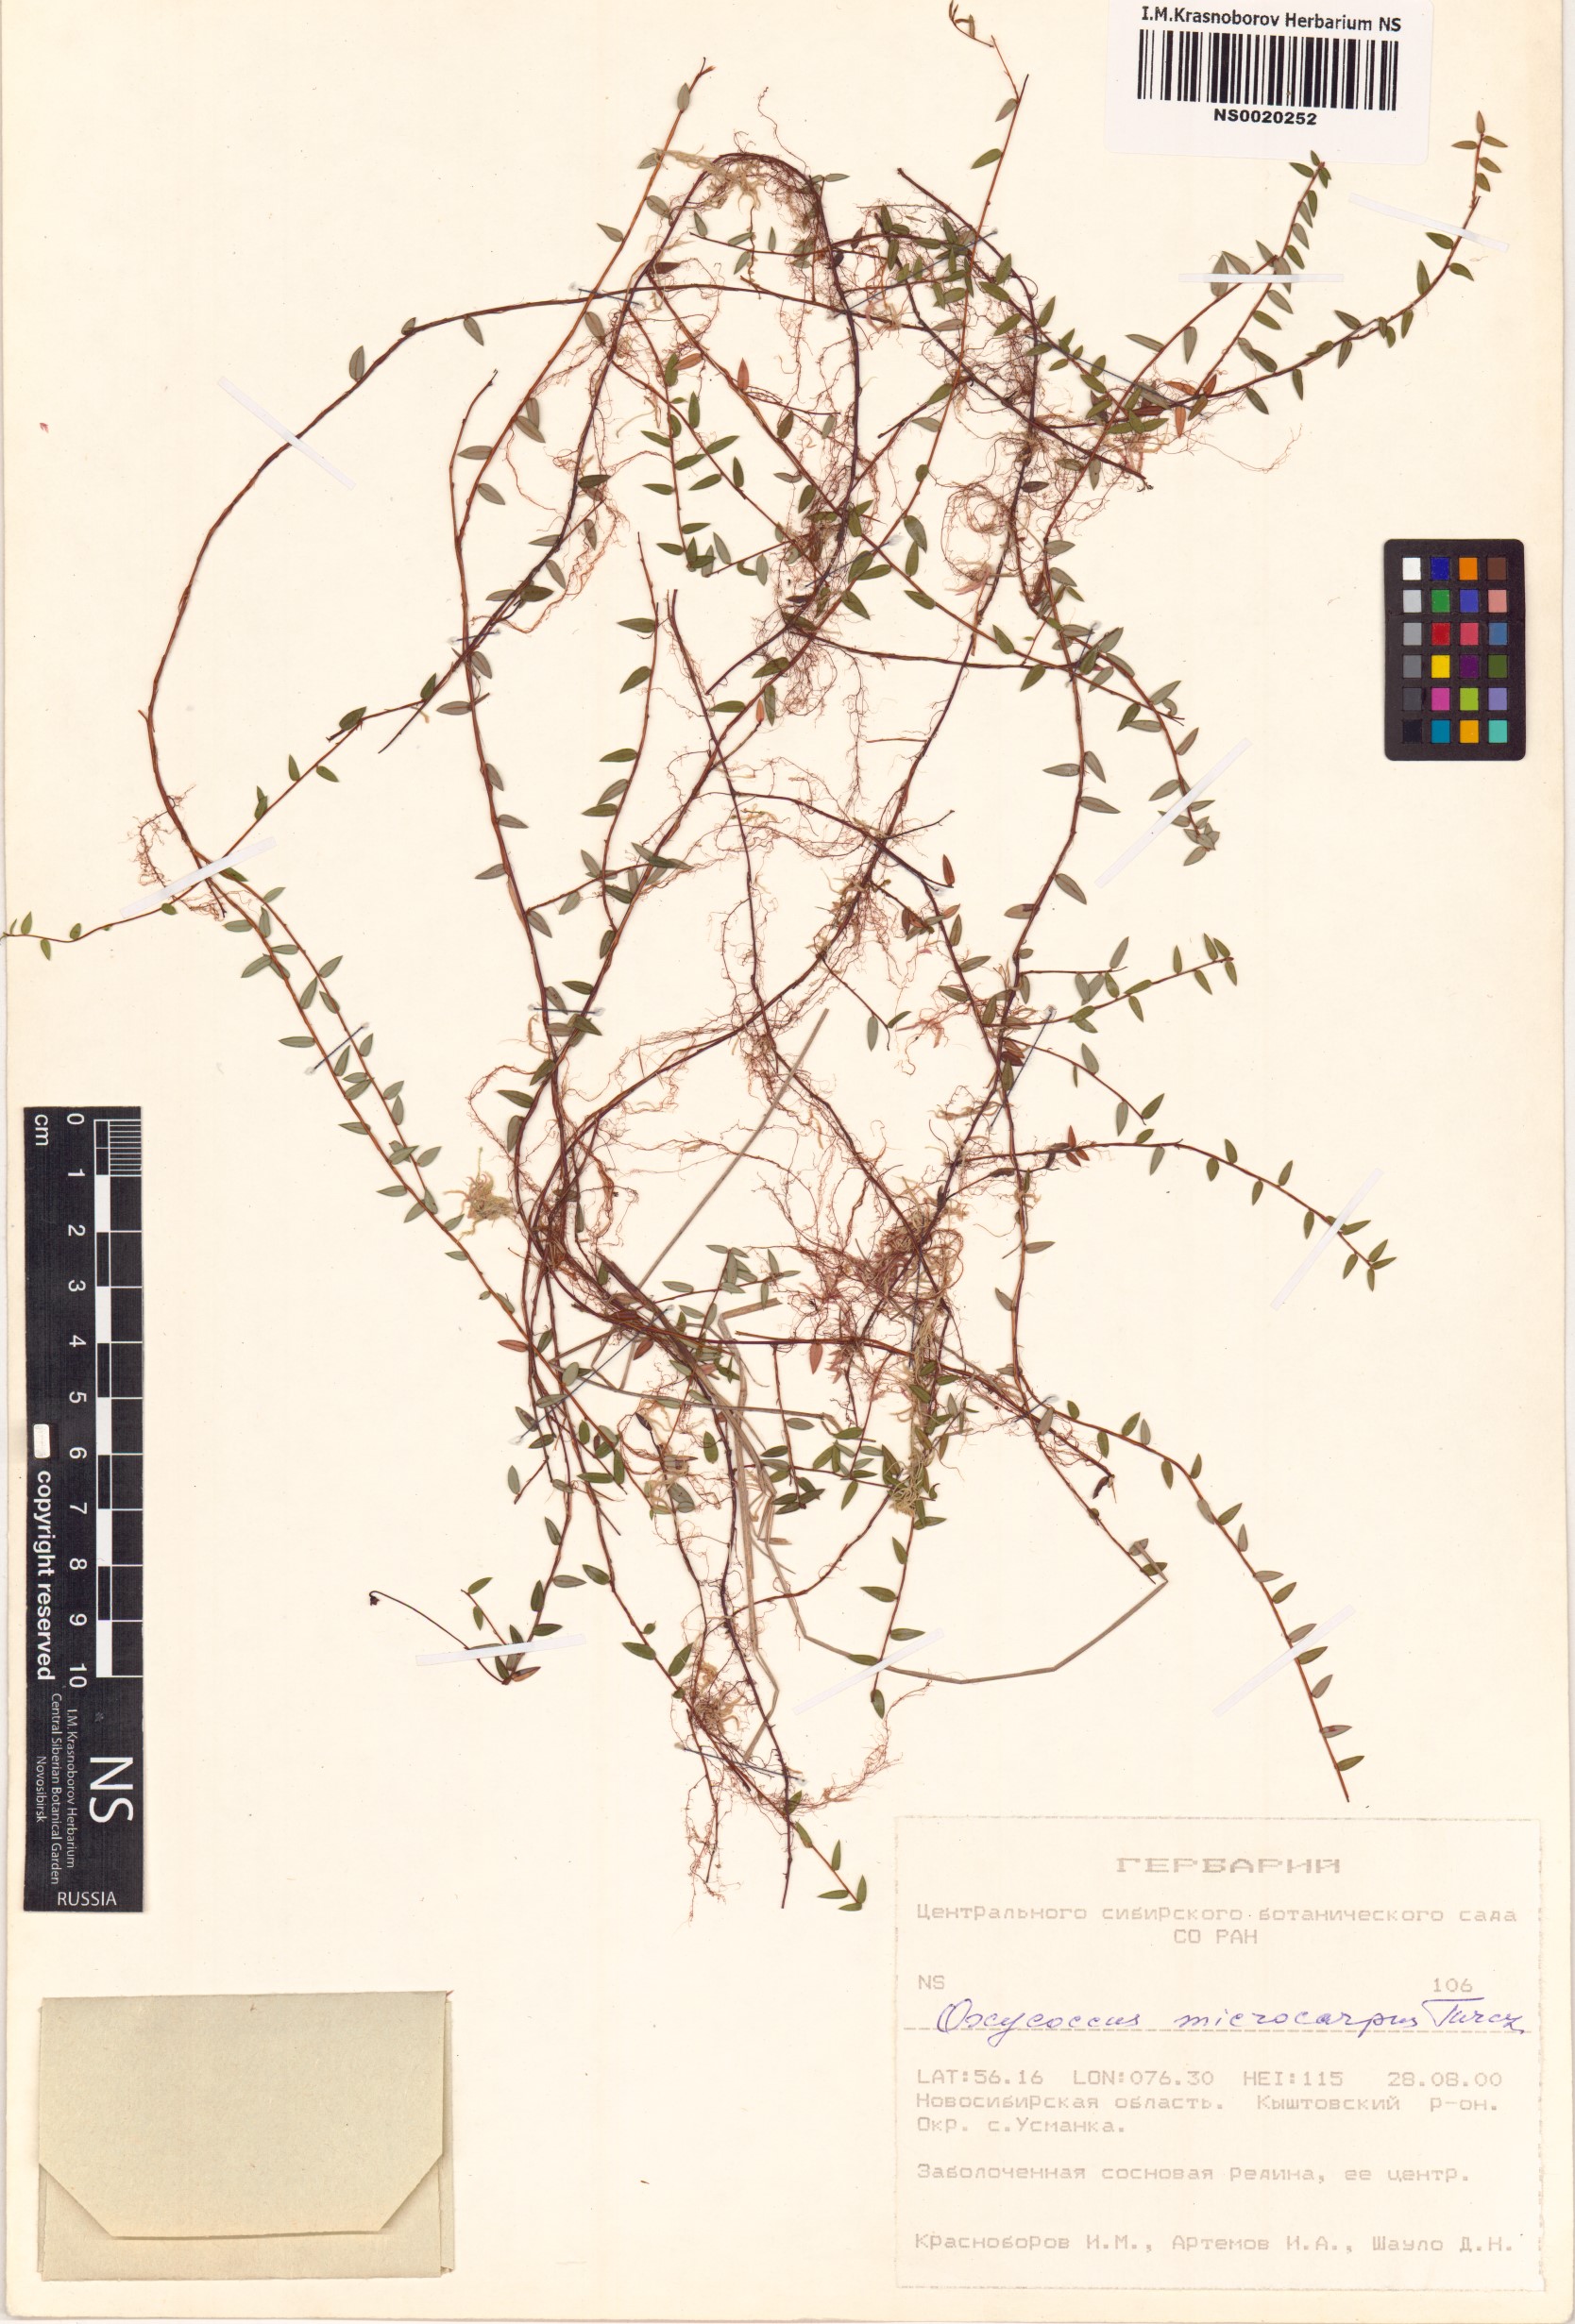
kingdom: Plantae
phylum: Tracheophyta
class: Magnoliopsida
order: Ericales
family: Ericaceae
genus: Vaccinium
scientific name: Vaccinium microcarpum
